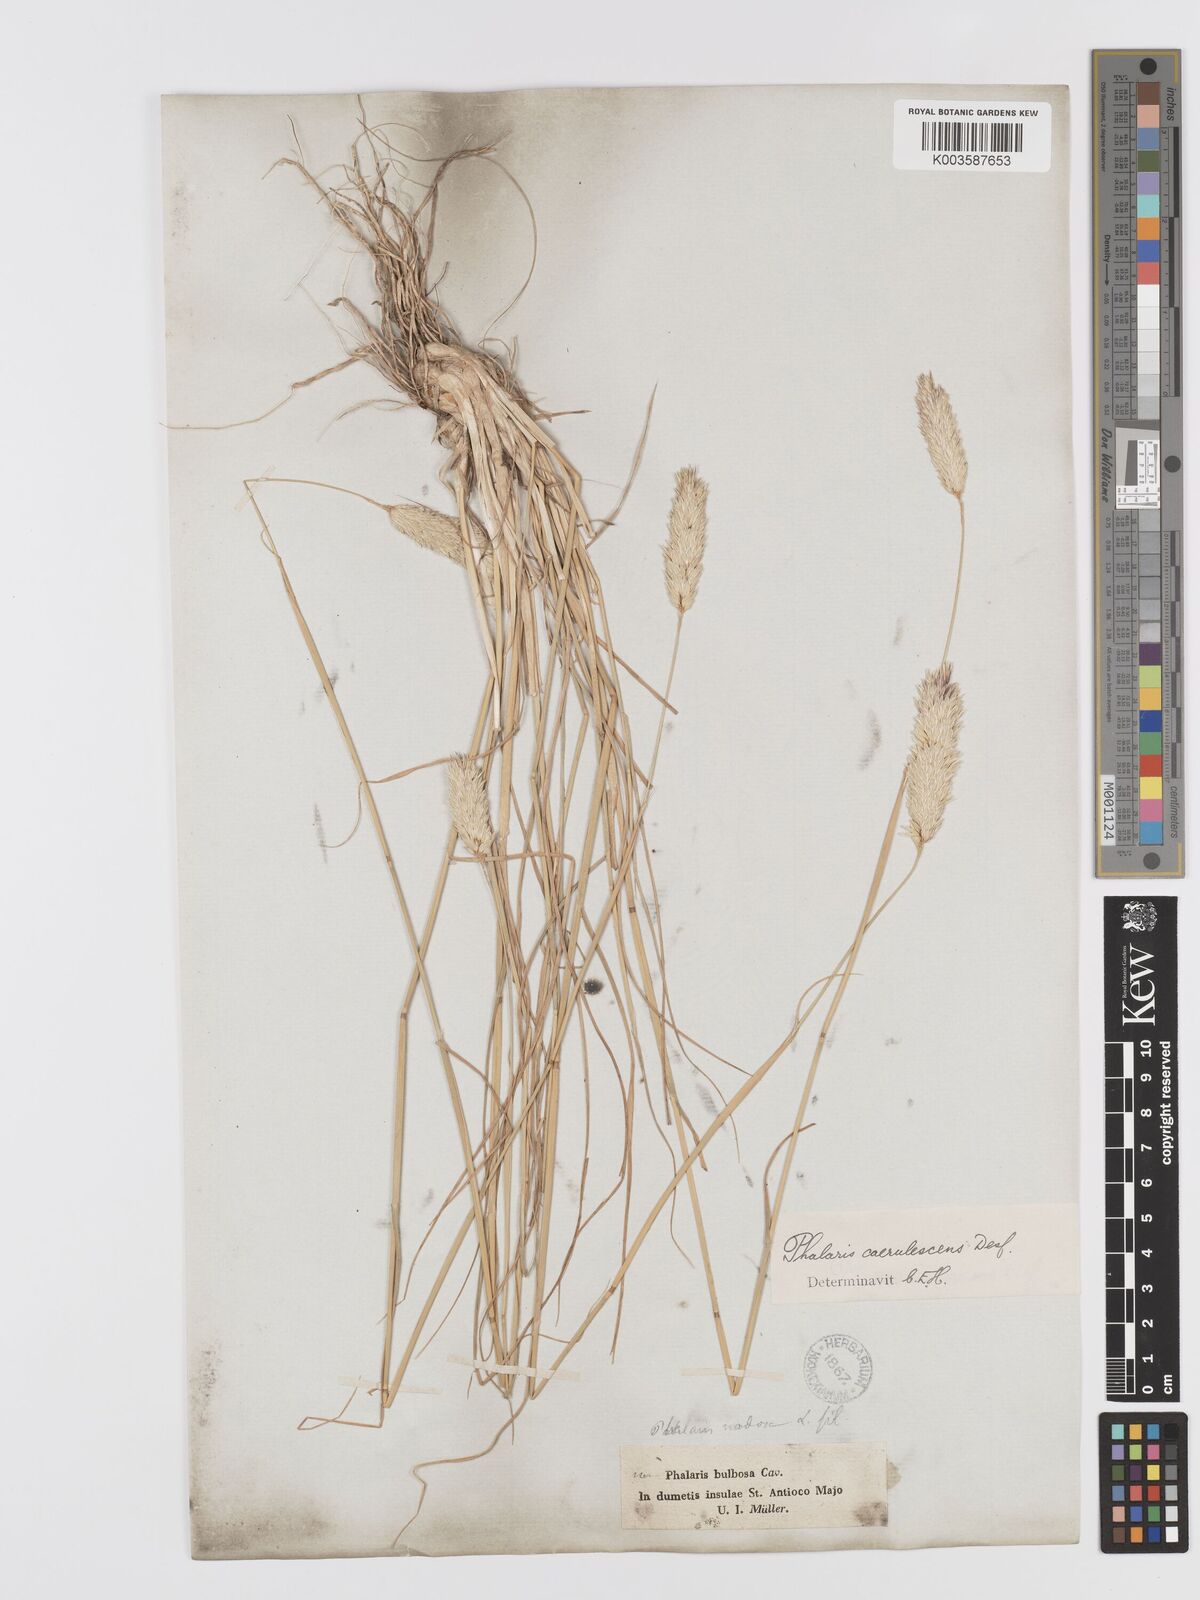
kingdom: Plantae
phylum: Tracheophyta
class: Liliopsida
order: Poales
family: Poaceae
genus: Phalaris
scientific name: Phalaris coerulescens
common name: Sunolgrass
